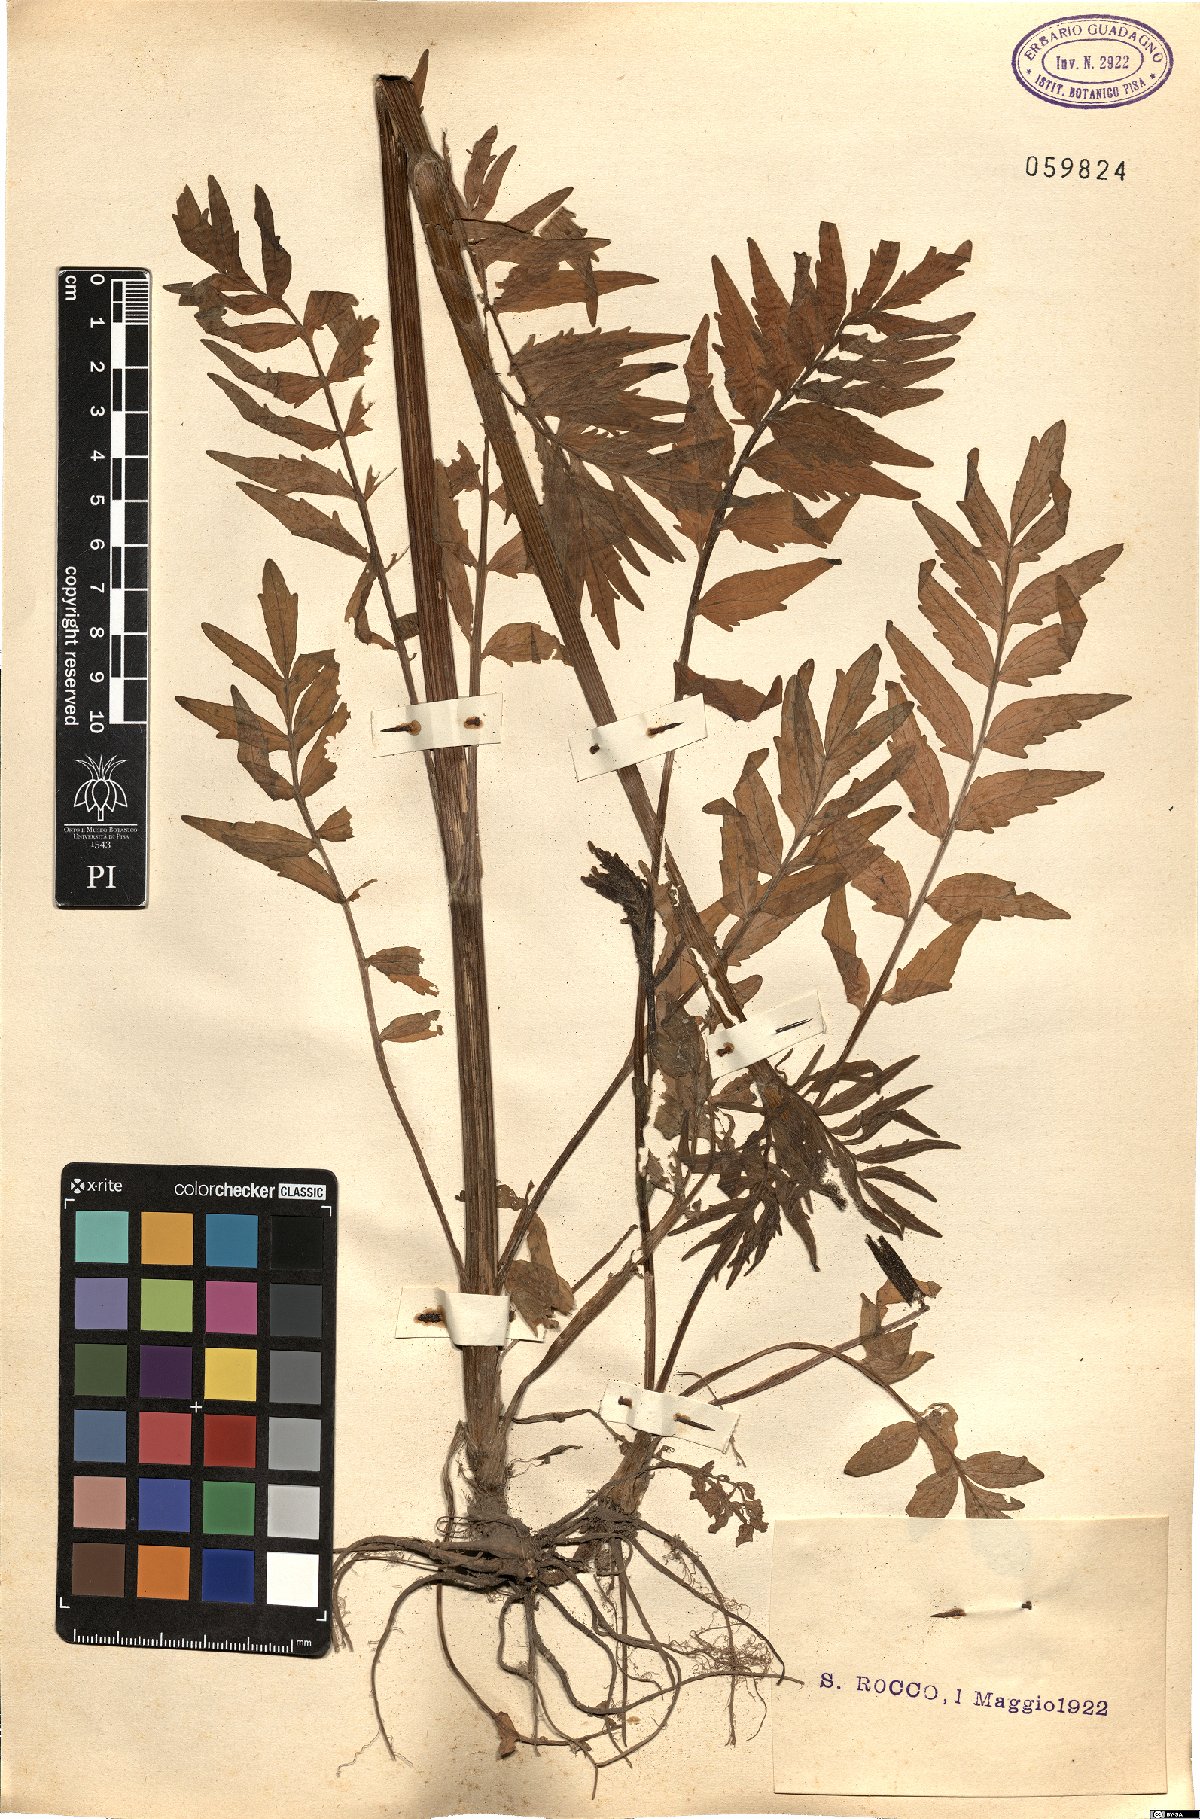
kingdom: Plantae
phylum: Tracheophyta
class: Magnoliopsida
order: Brassicales
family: Brassicaceae
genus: Cardamine
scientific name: Cardamine impatiens
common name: Narrow-leaved bitter-cress
